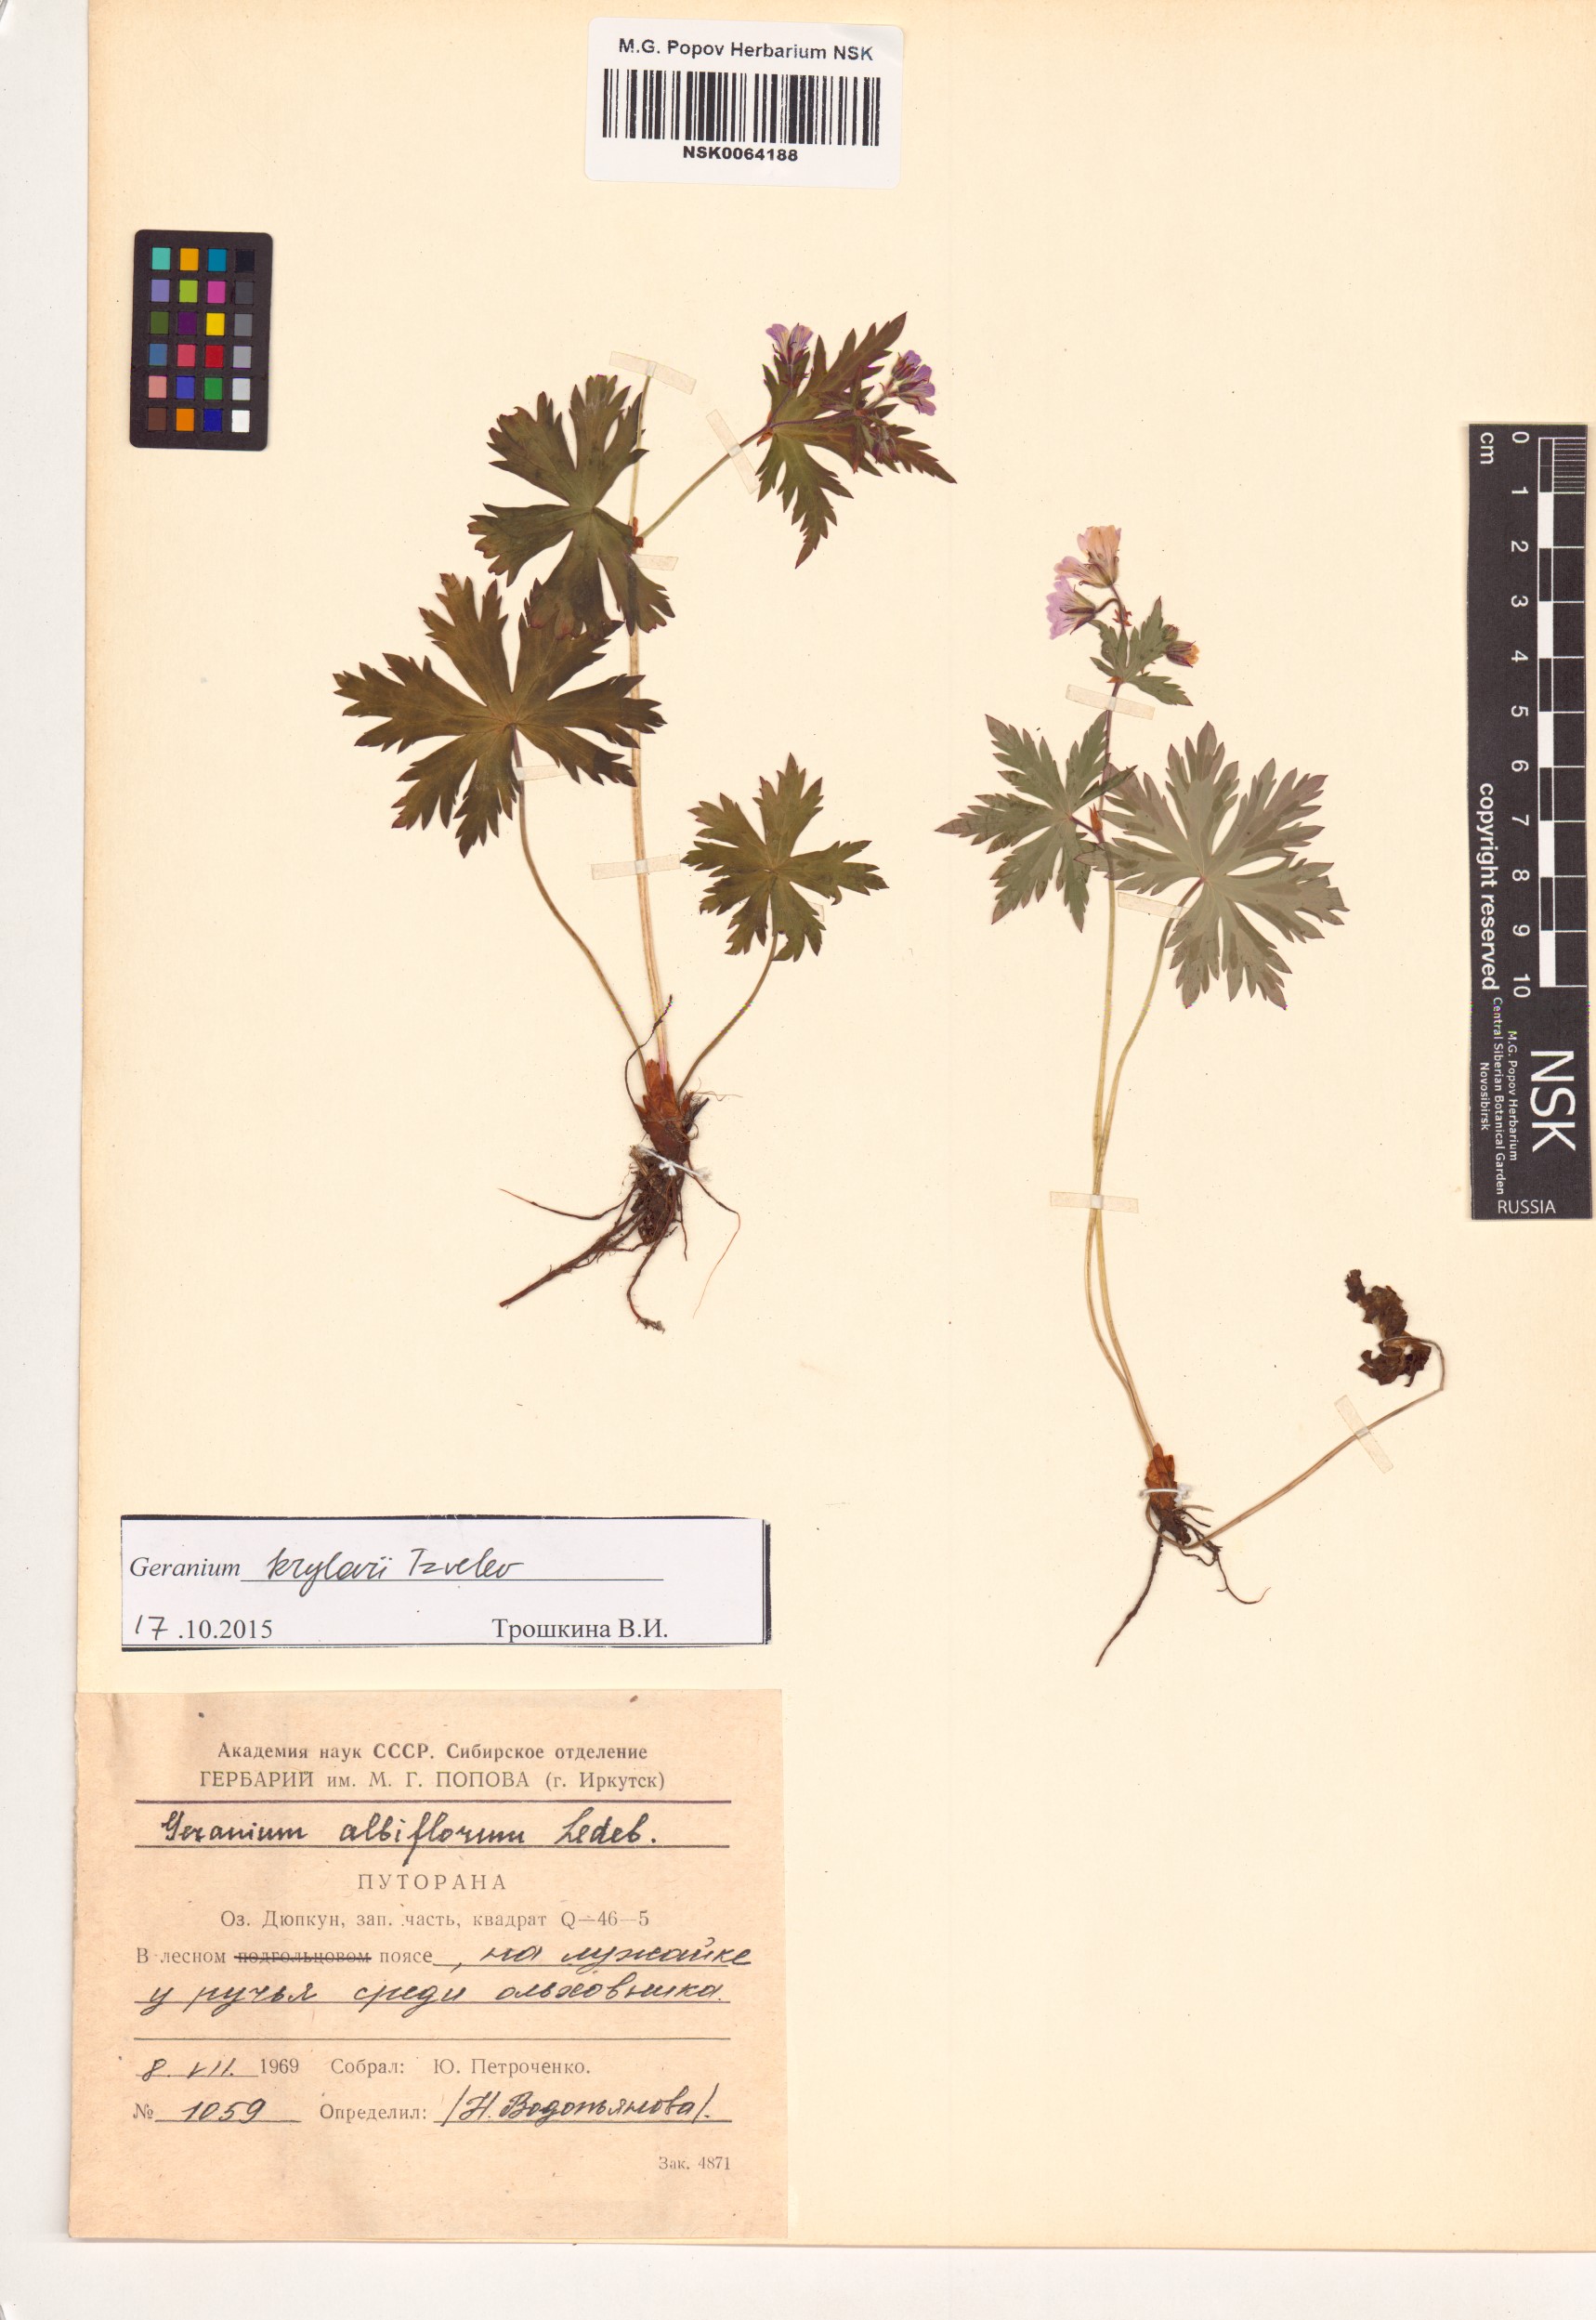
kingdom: Plantae
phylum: Tracheophyta
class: Magnoliopsida
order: Geraniales
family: Geraniaceae
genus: Geranium
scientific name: Geranium sylvaticum
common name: Wood crane's-bill
